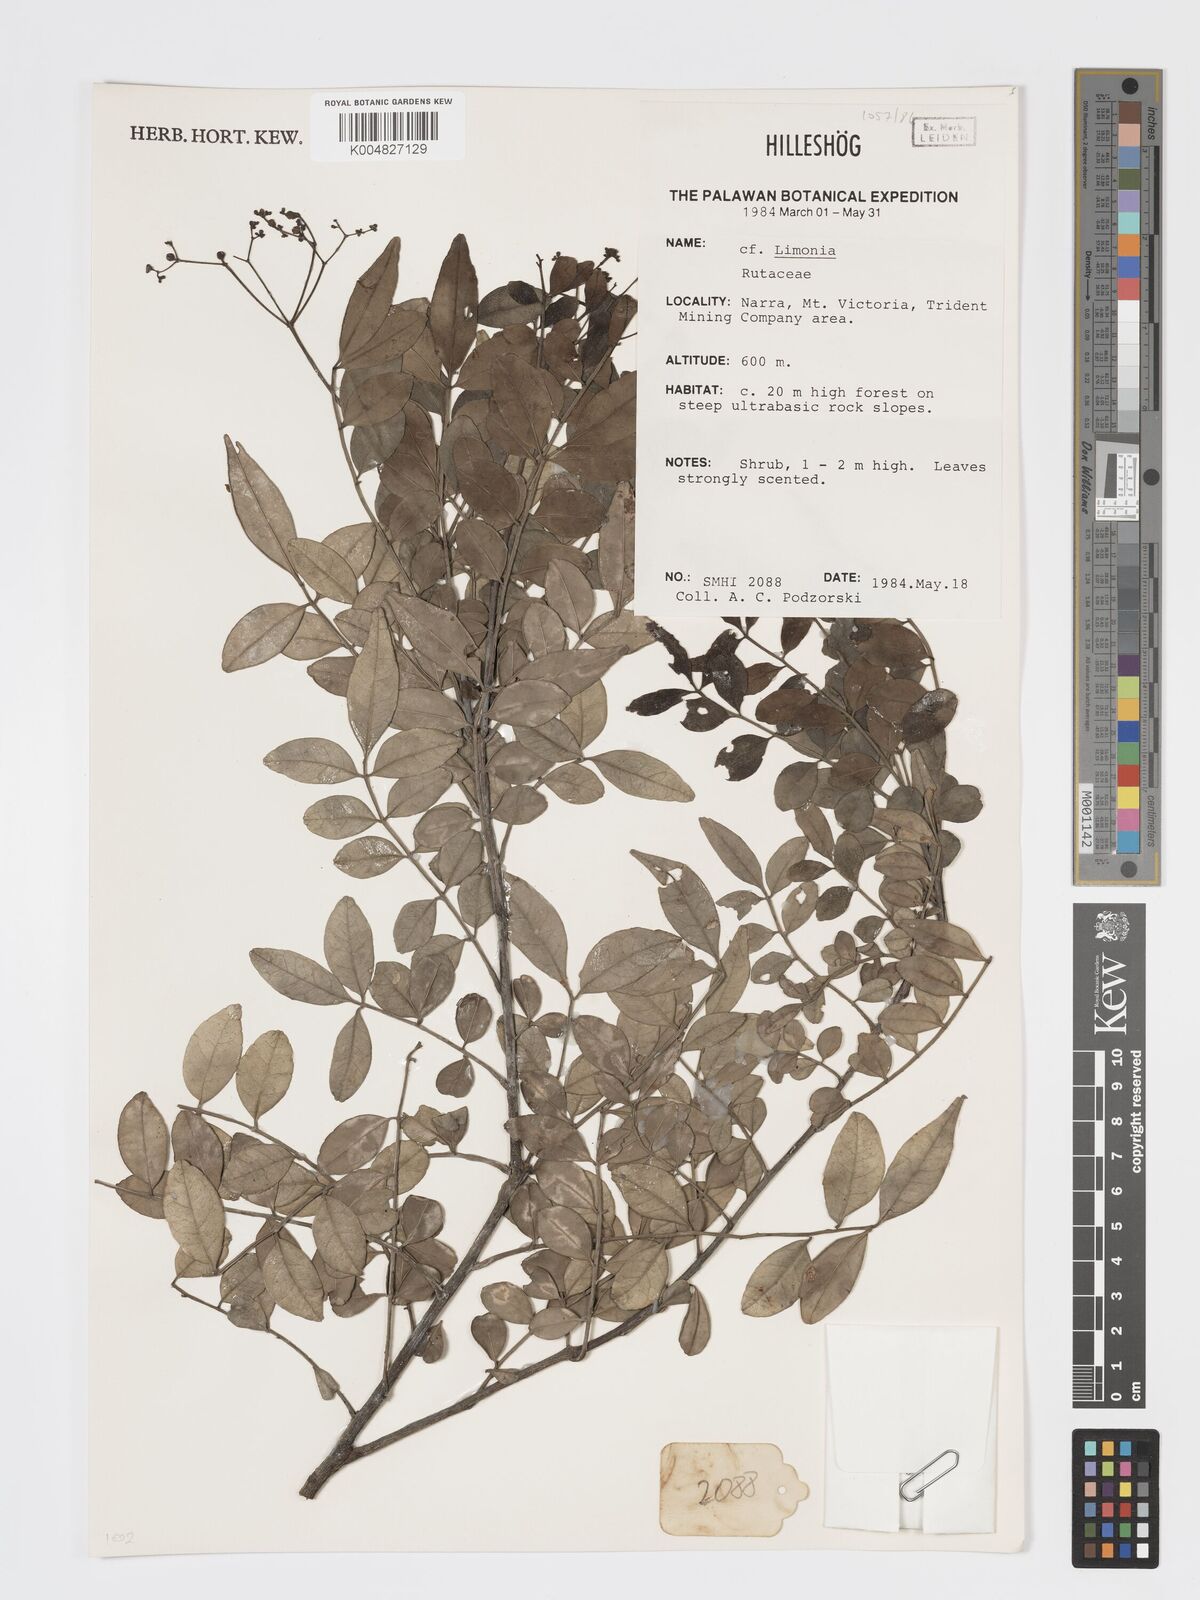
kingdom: Plantae
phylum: Tracheophyta
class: Magnoliopsida
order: Sapindales
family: Rutaceae
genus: Limonia
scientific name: Limonia
